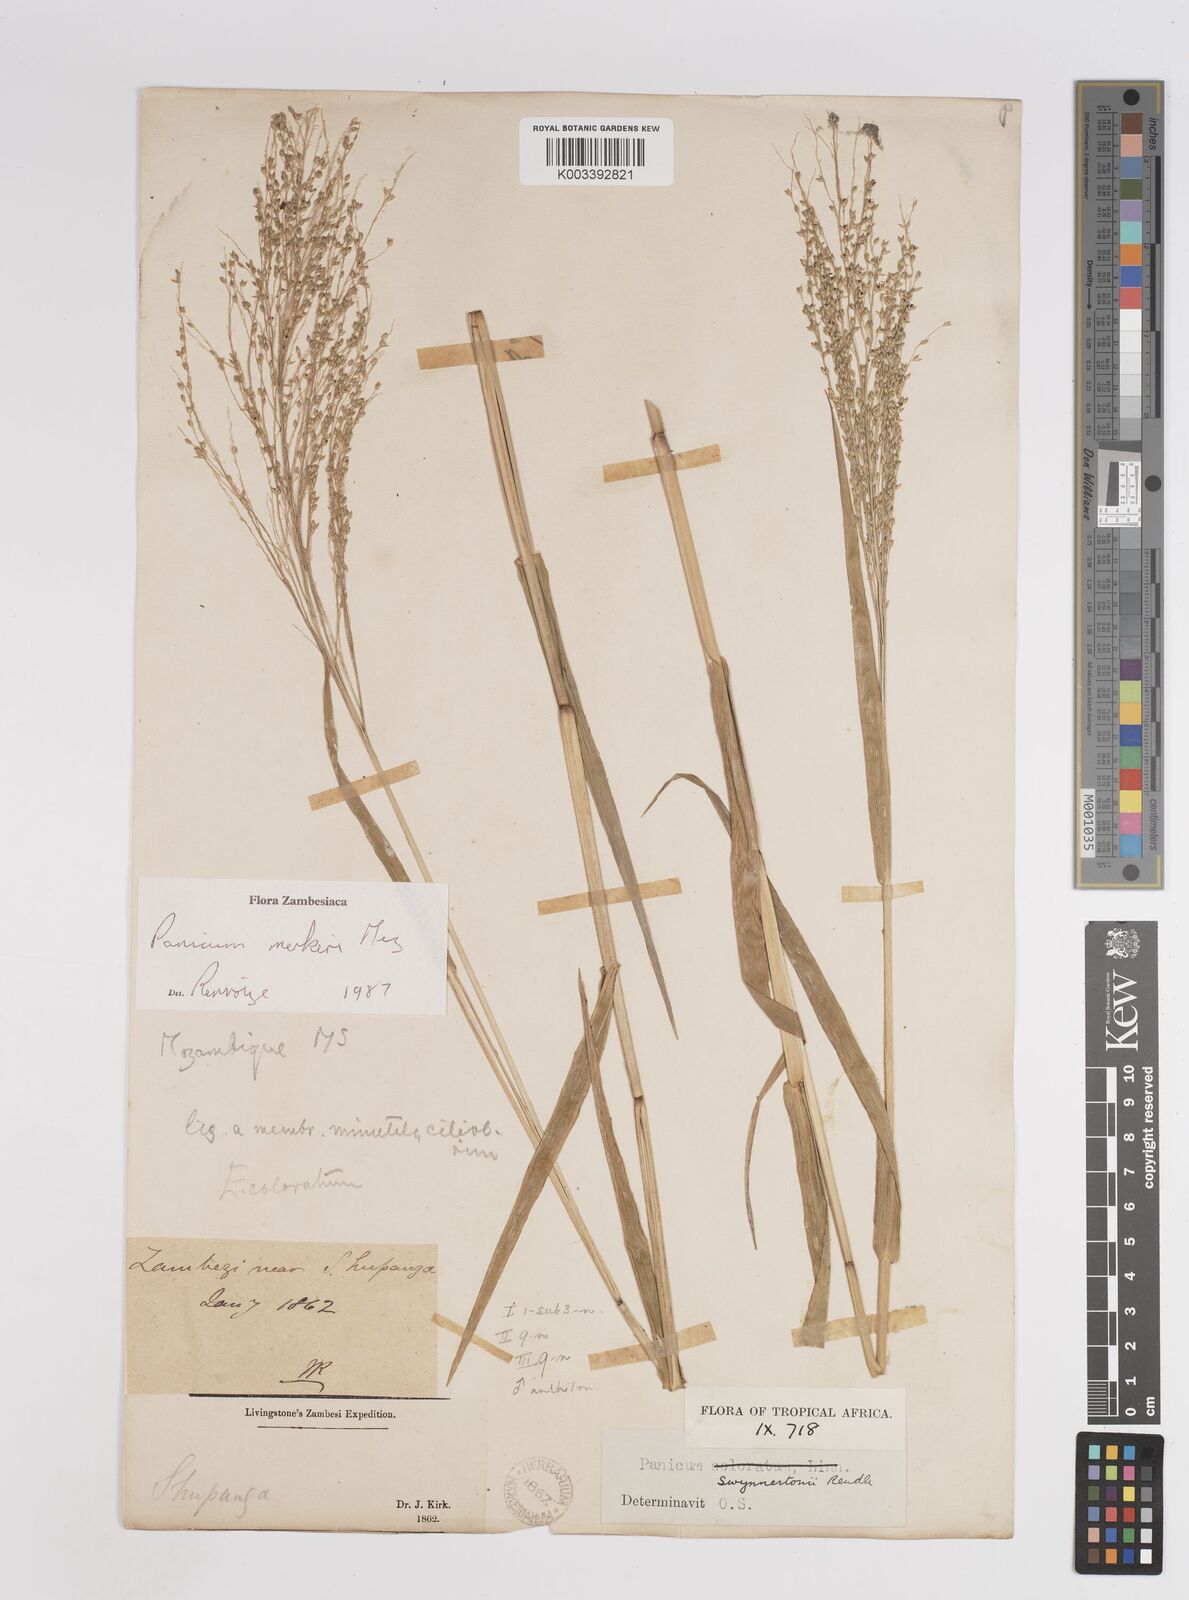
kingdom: Plantae
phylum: Tracheophyta
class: Liliopsida
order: Poales
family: Poaceae
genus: Panicum
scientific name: Panicum merkeri
